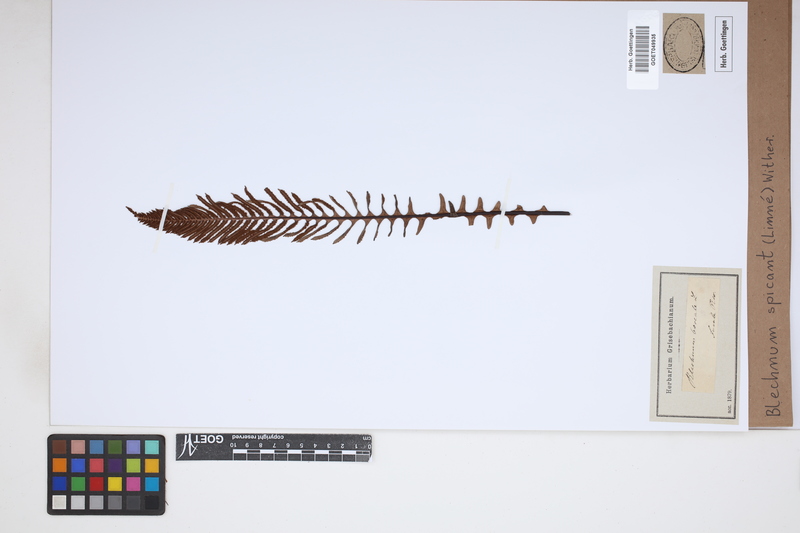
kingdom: Plantae
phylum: Tracheophyta
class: Polypodiopsida
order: Polypodiales
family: Blechnaceae
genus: Struthiopteris
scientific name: Struthiopteris spicant
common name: Deer fern
